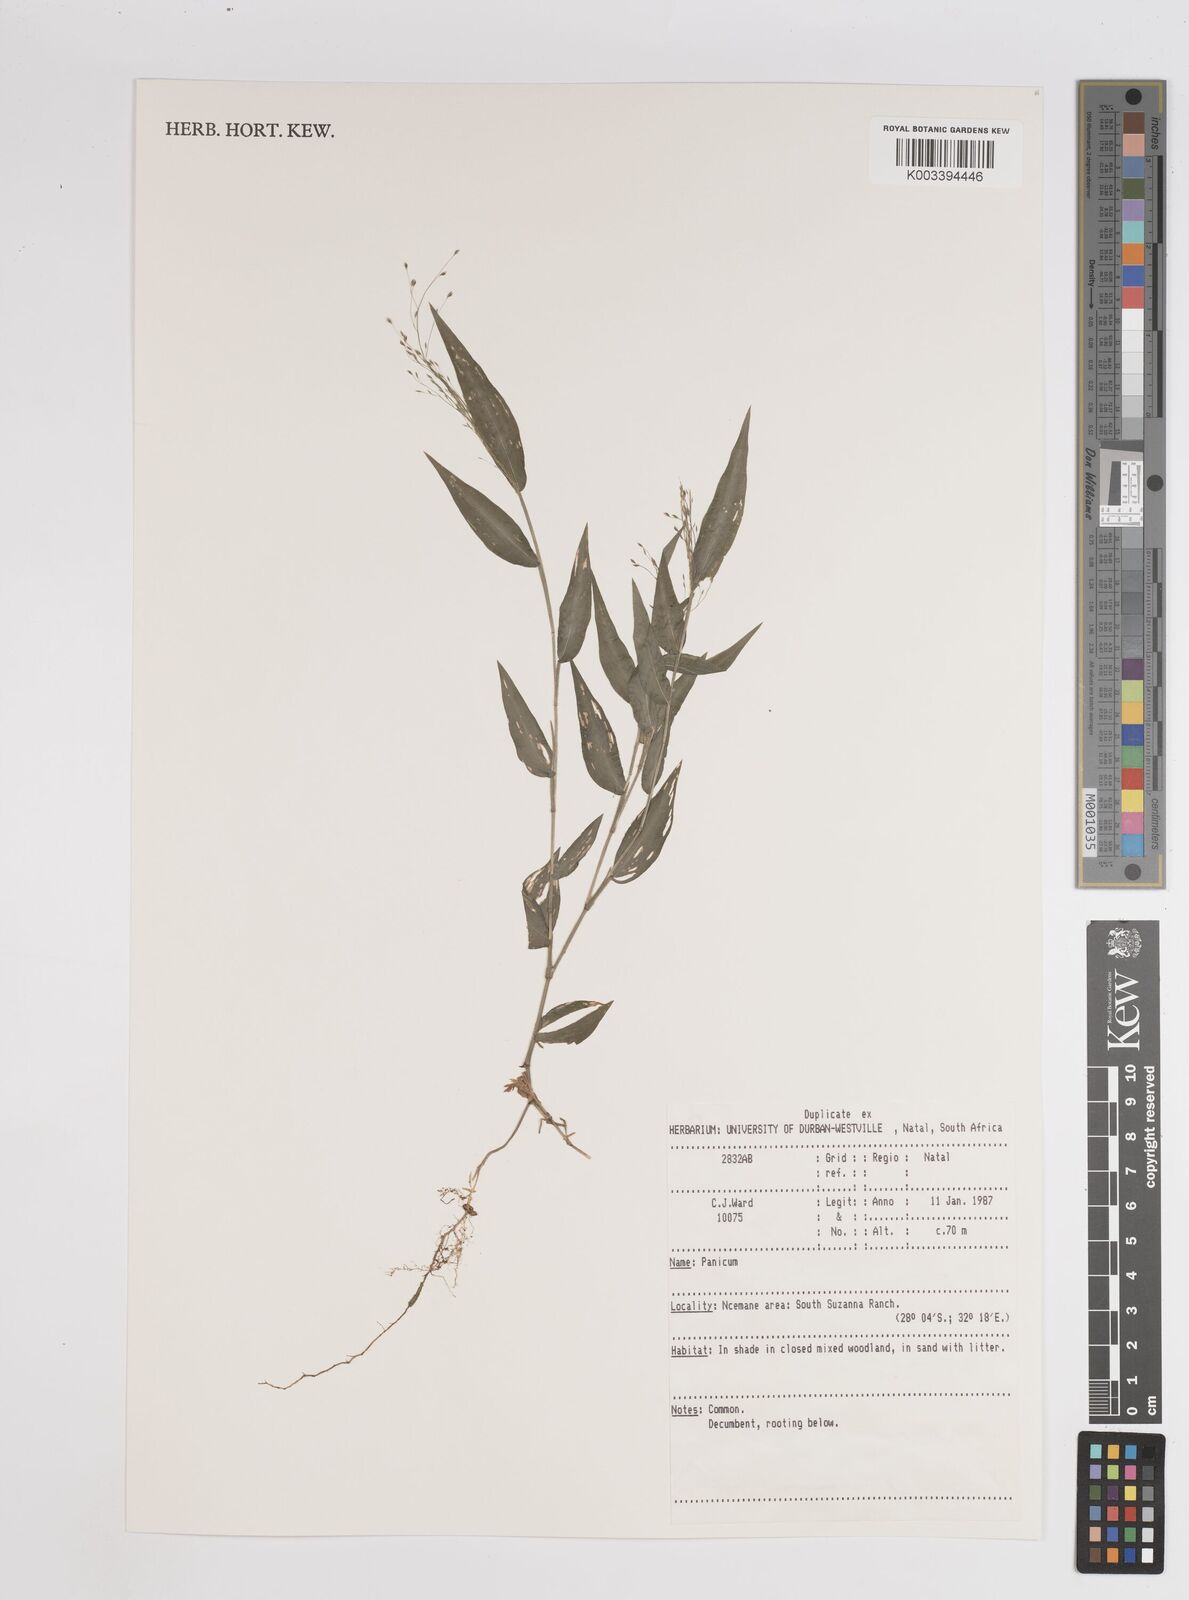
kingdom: Plantae
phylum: Tracheophyta
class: Liliopsida
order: Poales
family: Poaceae
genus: Adenochloa
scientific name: Adenochloa pectinella
